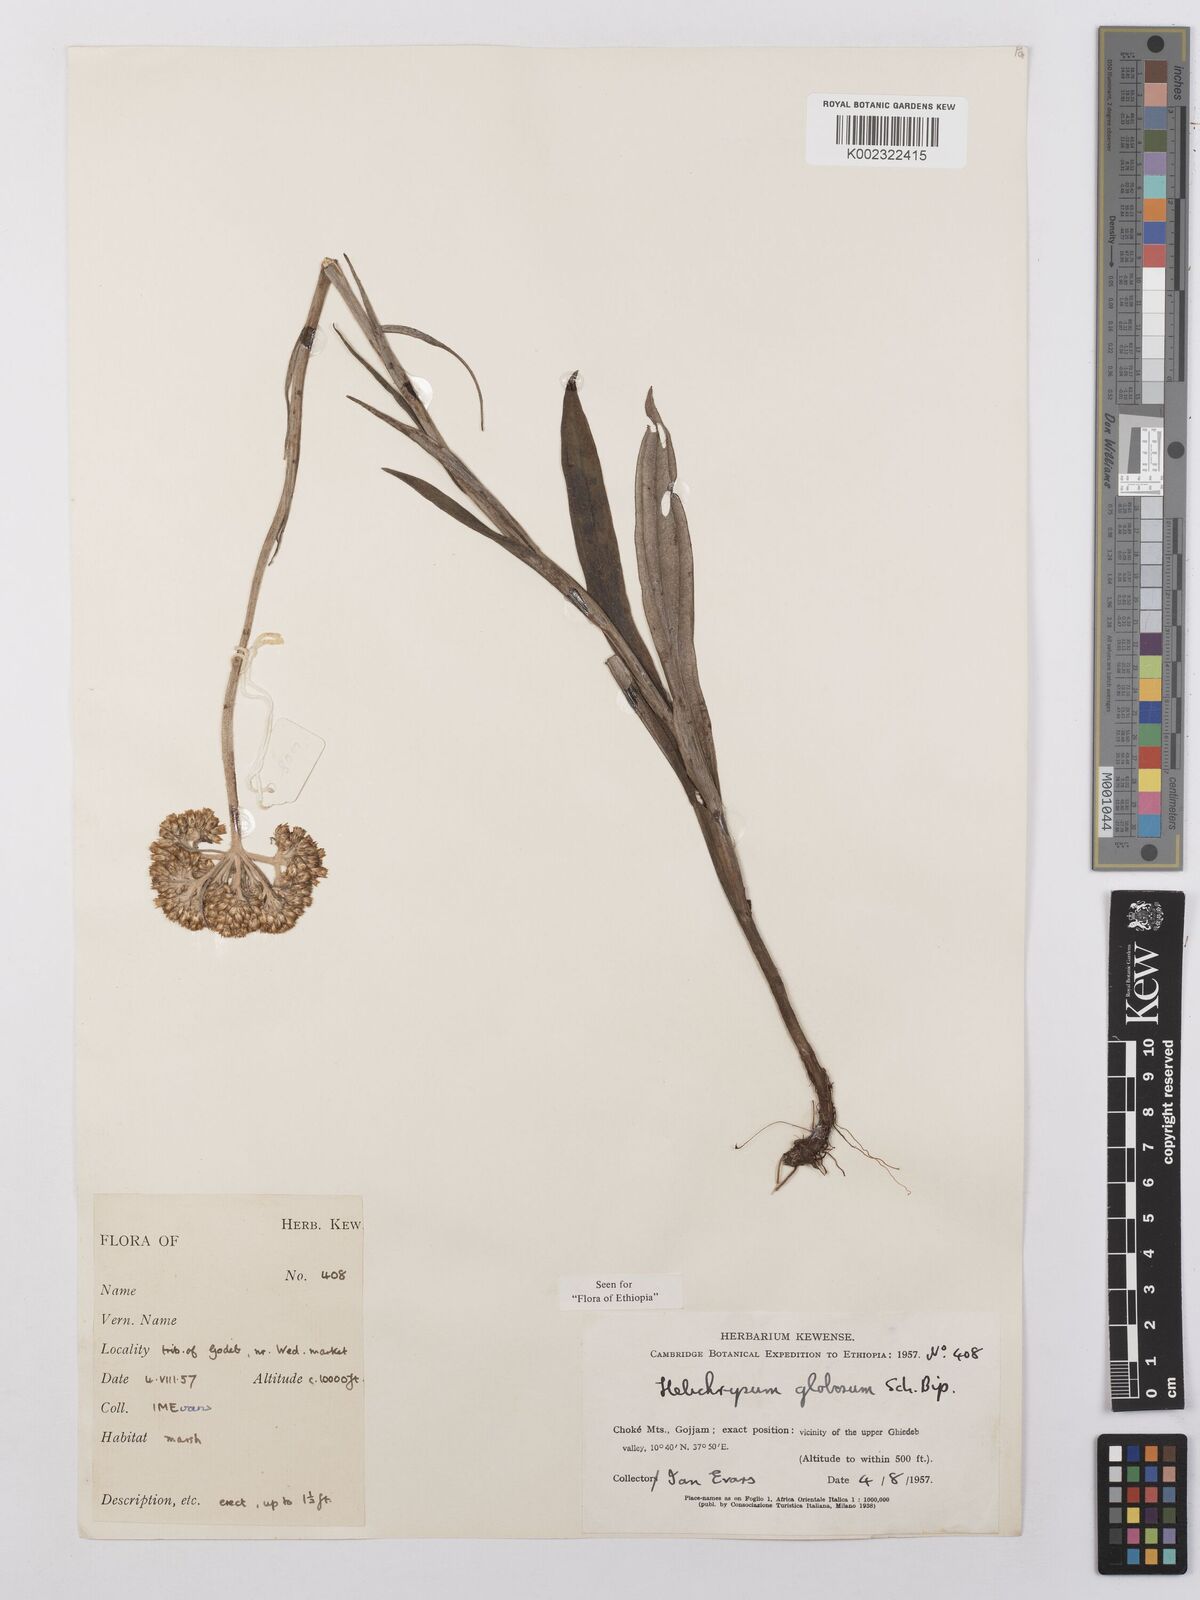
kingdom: Plantae
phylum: Tracheophyta
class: Magnoliopsida
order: Asterales
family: Asteraceae
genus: Helichrysum
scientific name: Helichrysum globosum
